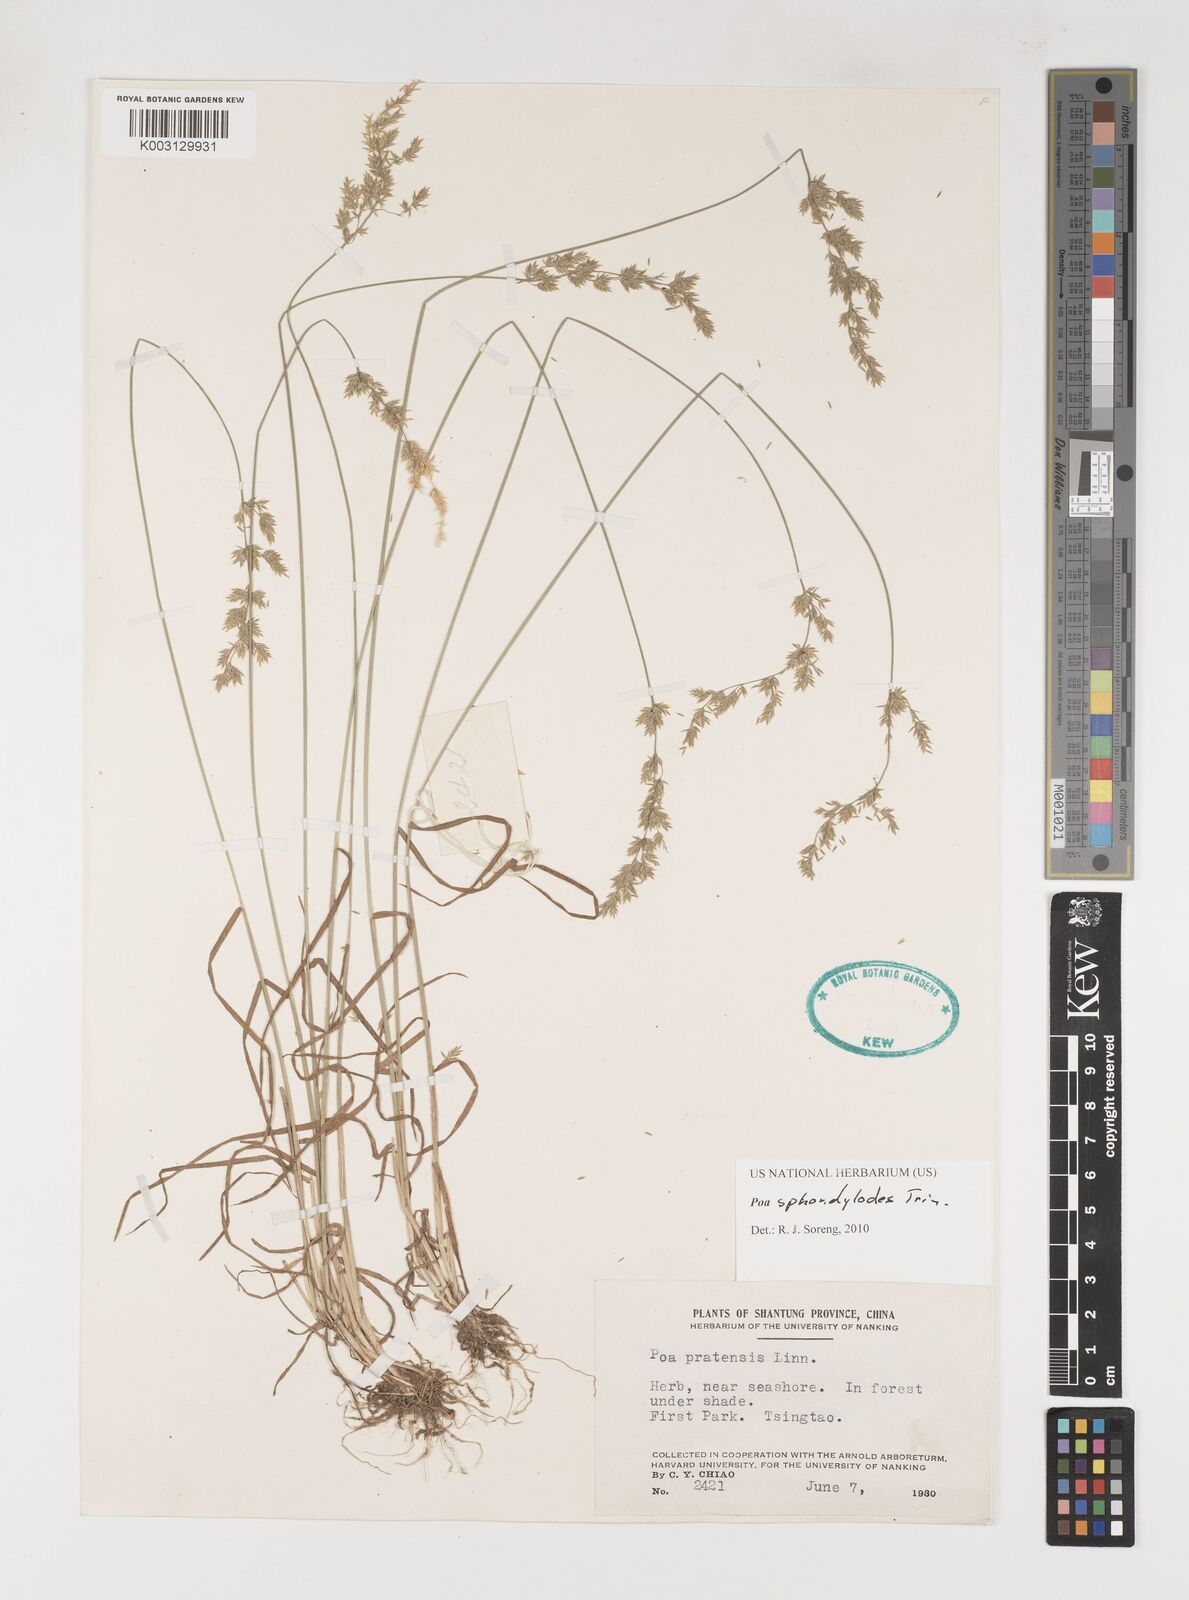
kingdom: Plantae
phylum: Tracheophyta
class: Liliopsida
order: Poales
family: Poaceae
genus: Poa
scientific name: Poa sphondylodes
